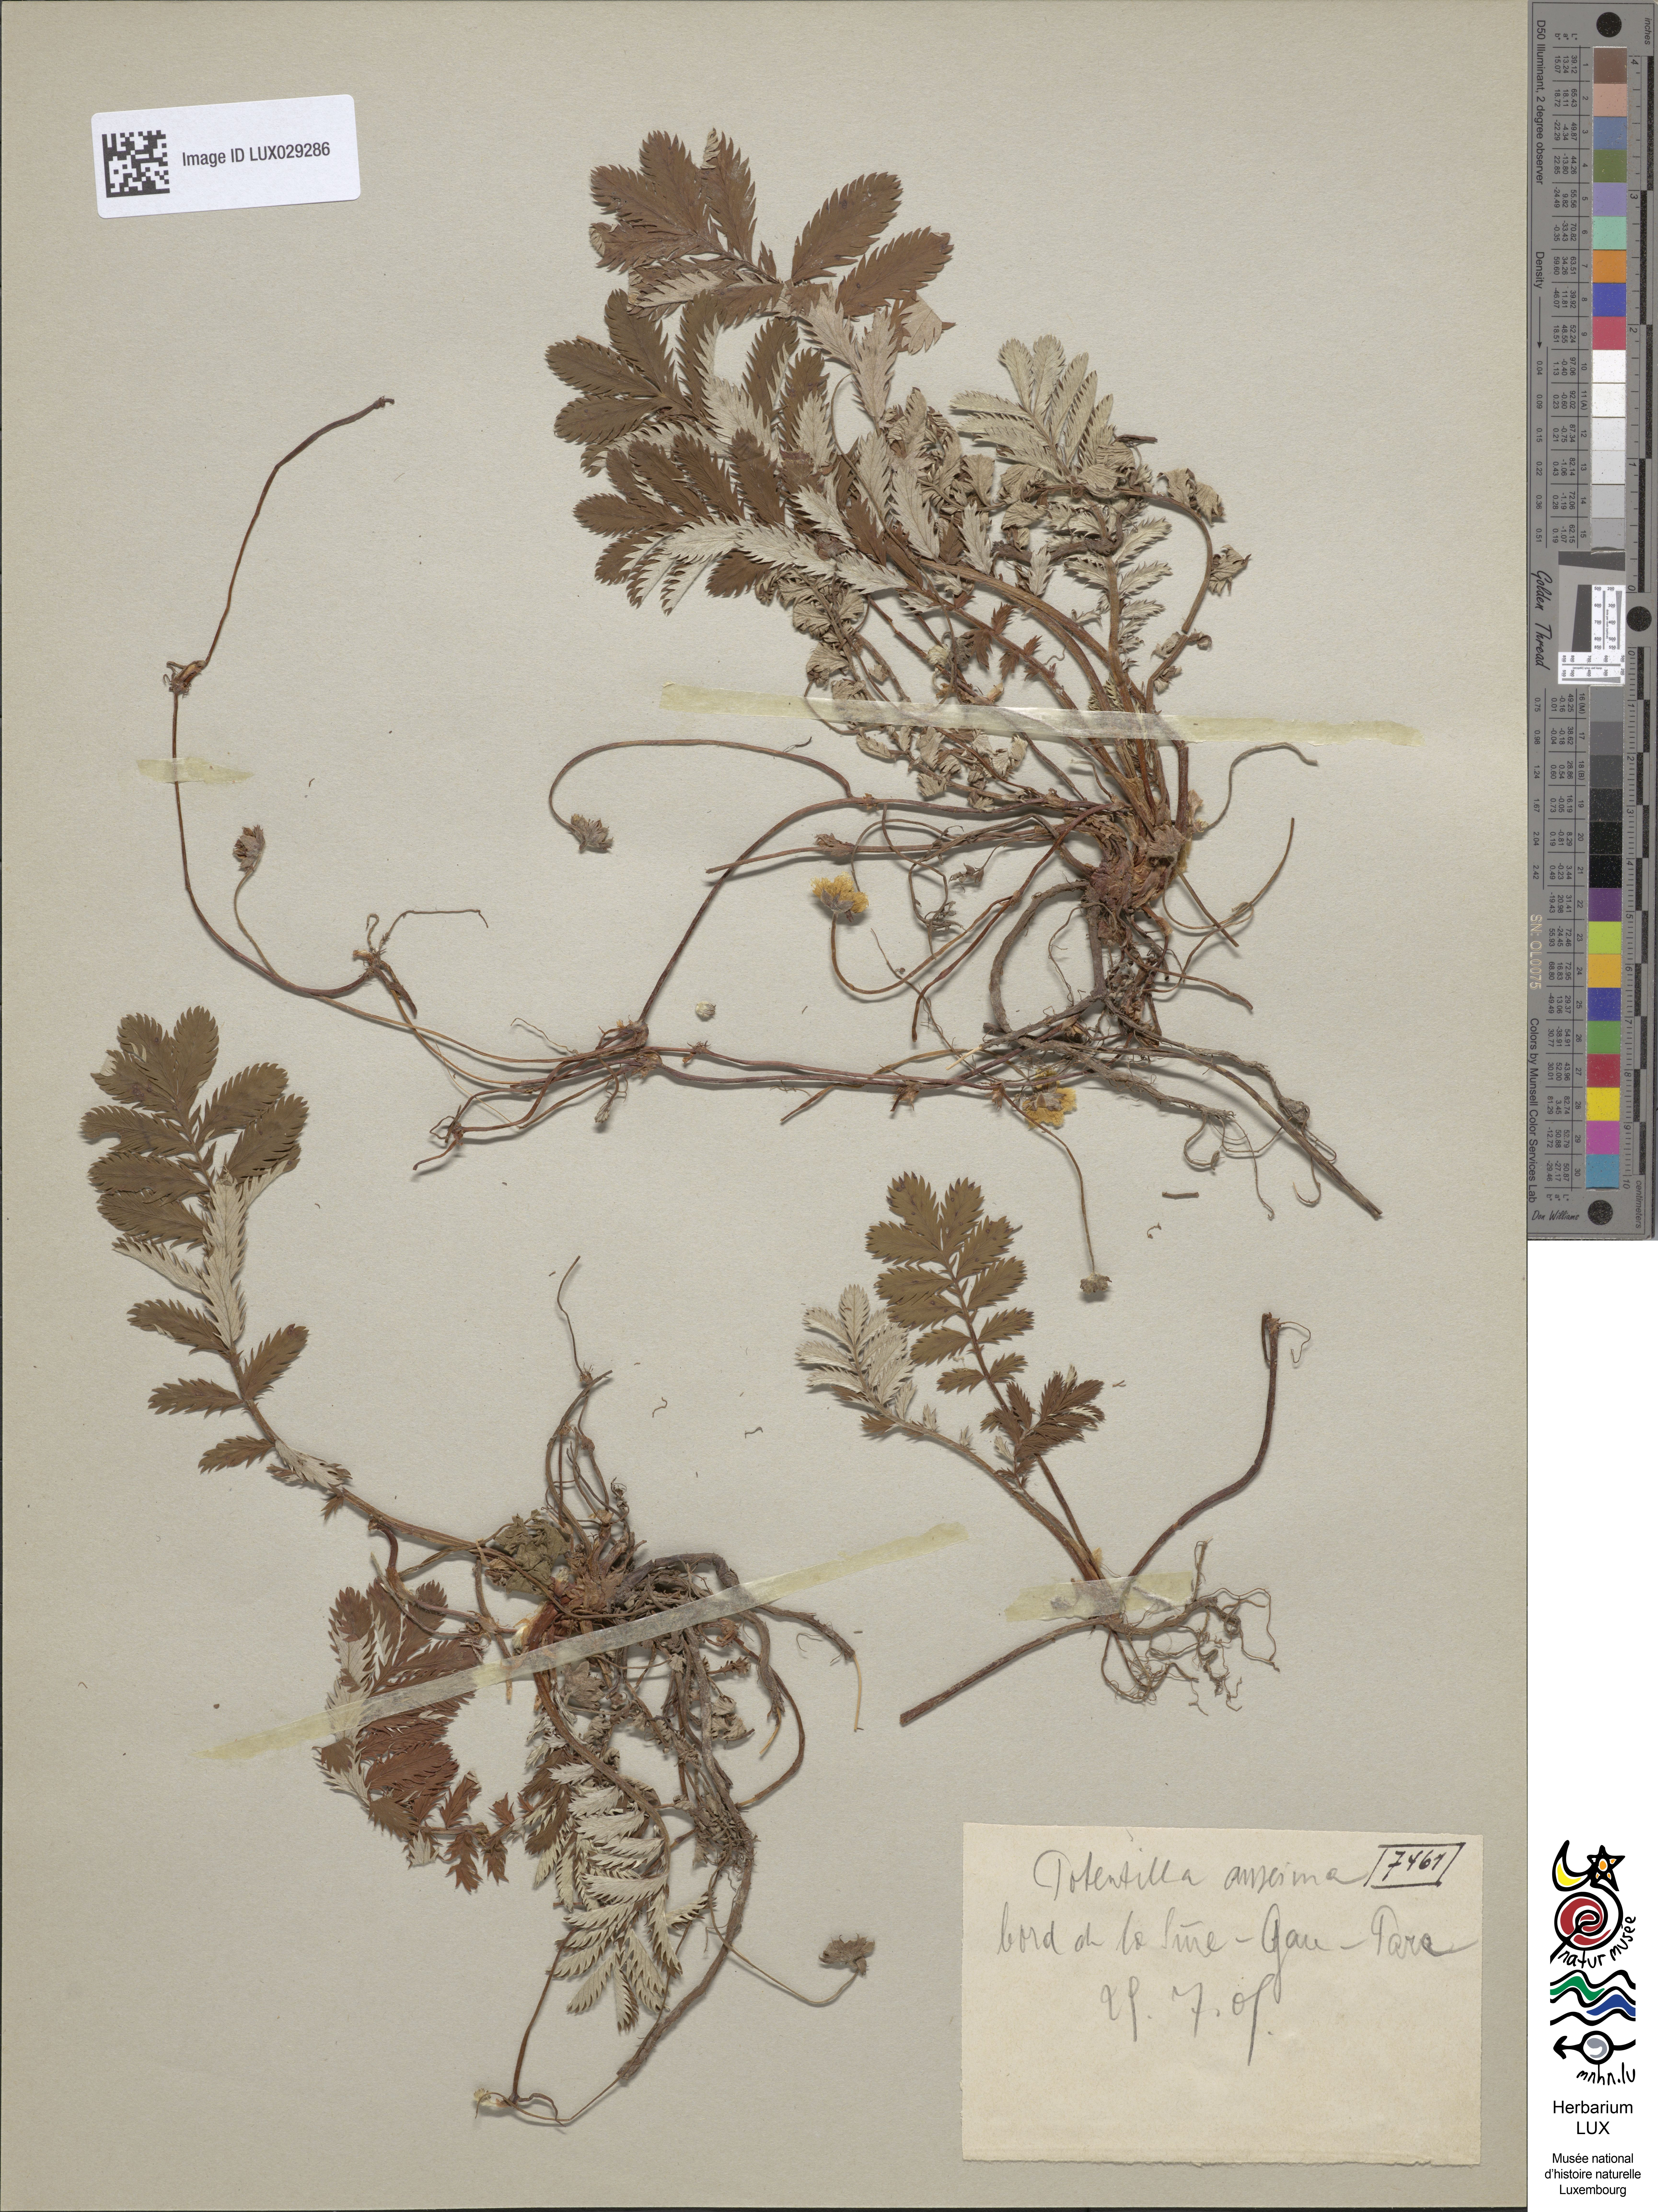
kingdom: Plantae
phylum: Tracheophyta
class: Magnoliopsida
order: Rosales
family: Rosaceae
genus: Argentina
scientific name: Argentina anserina
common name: Common silverweed
